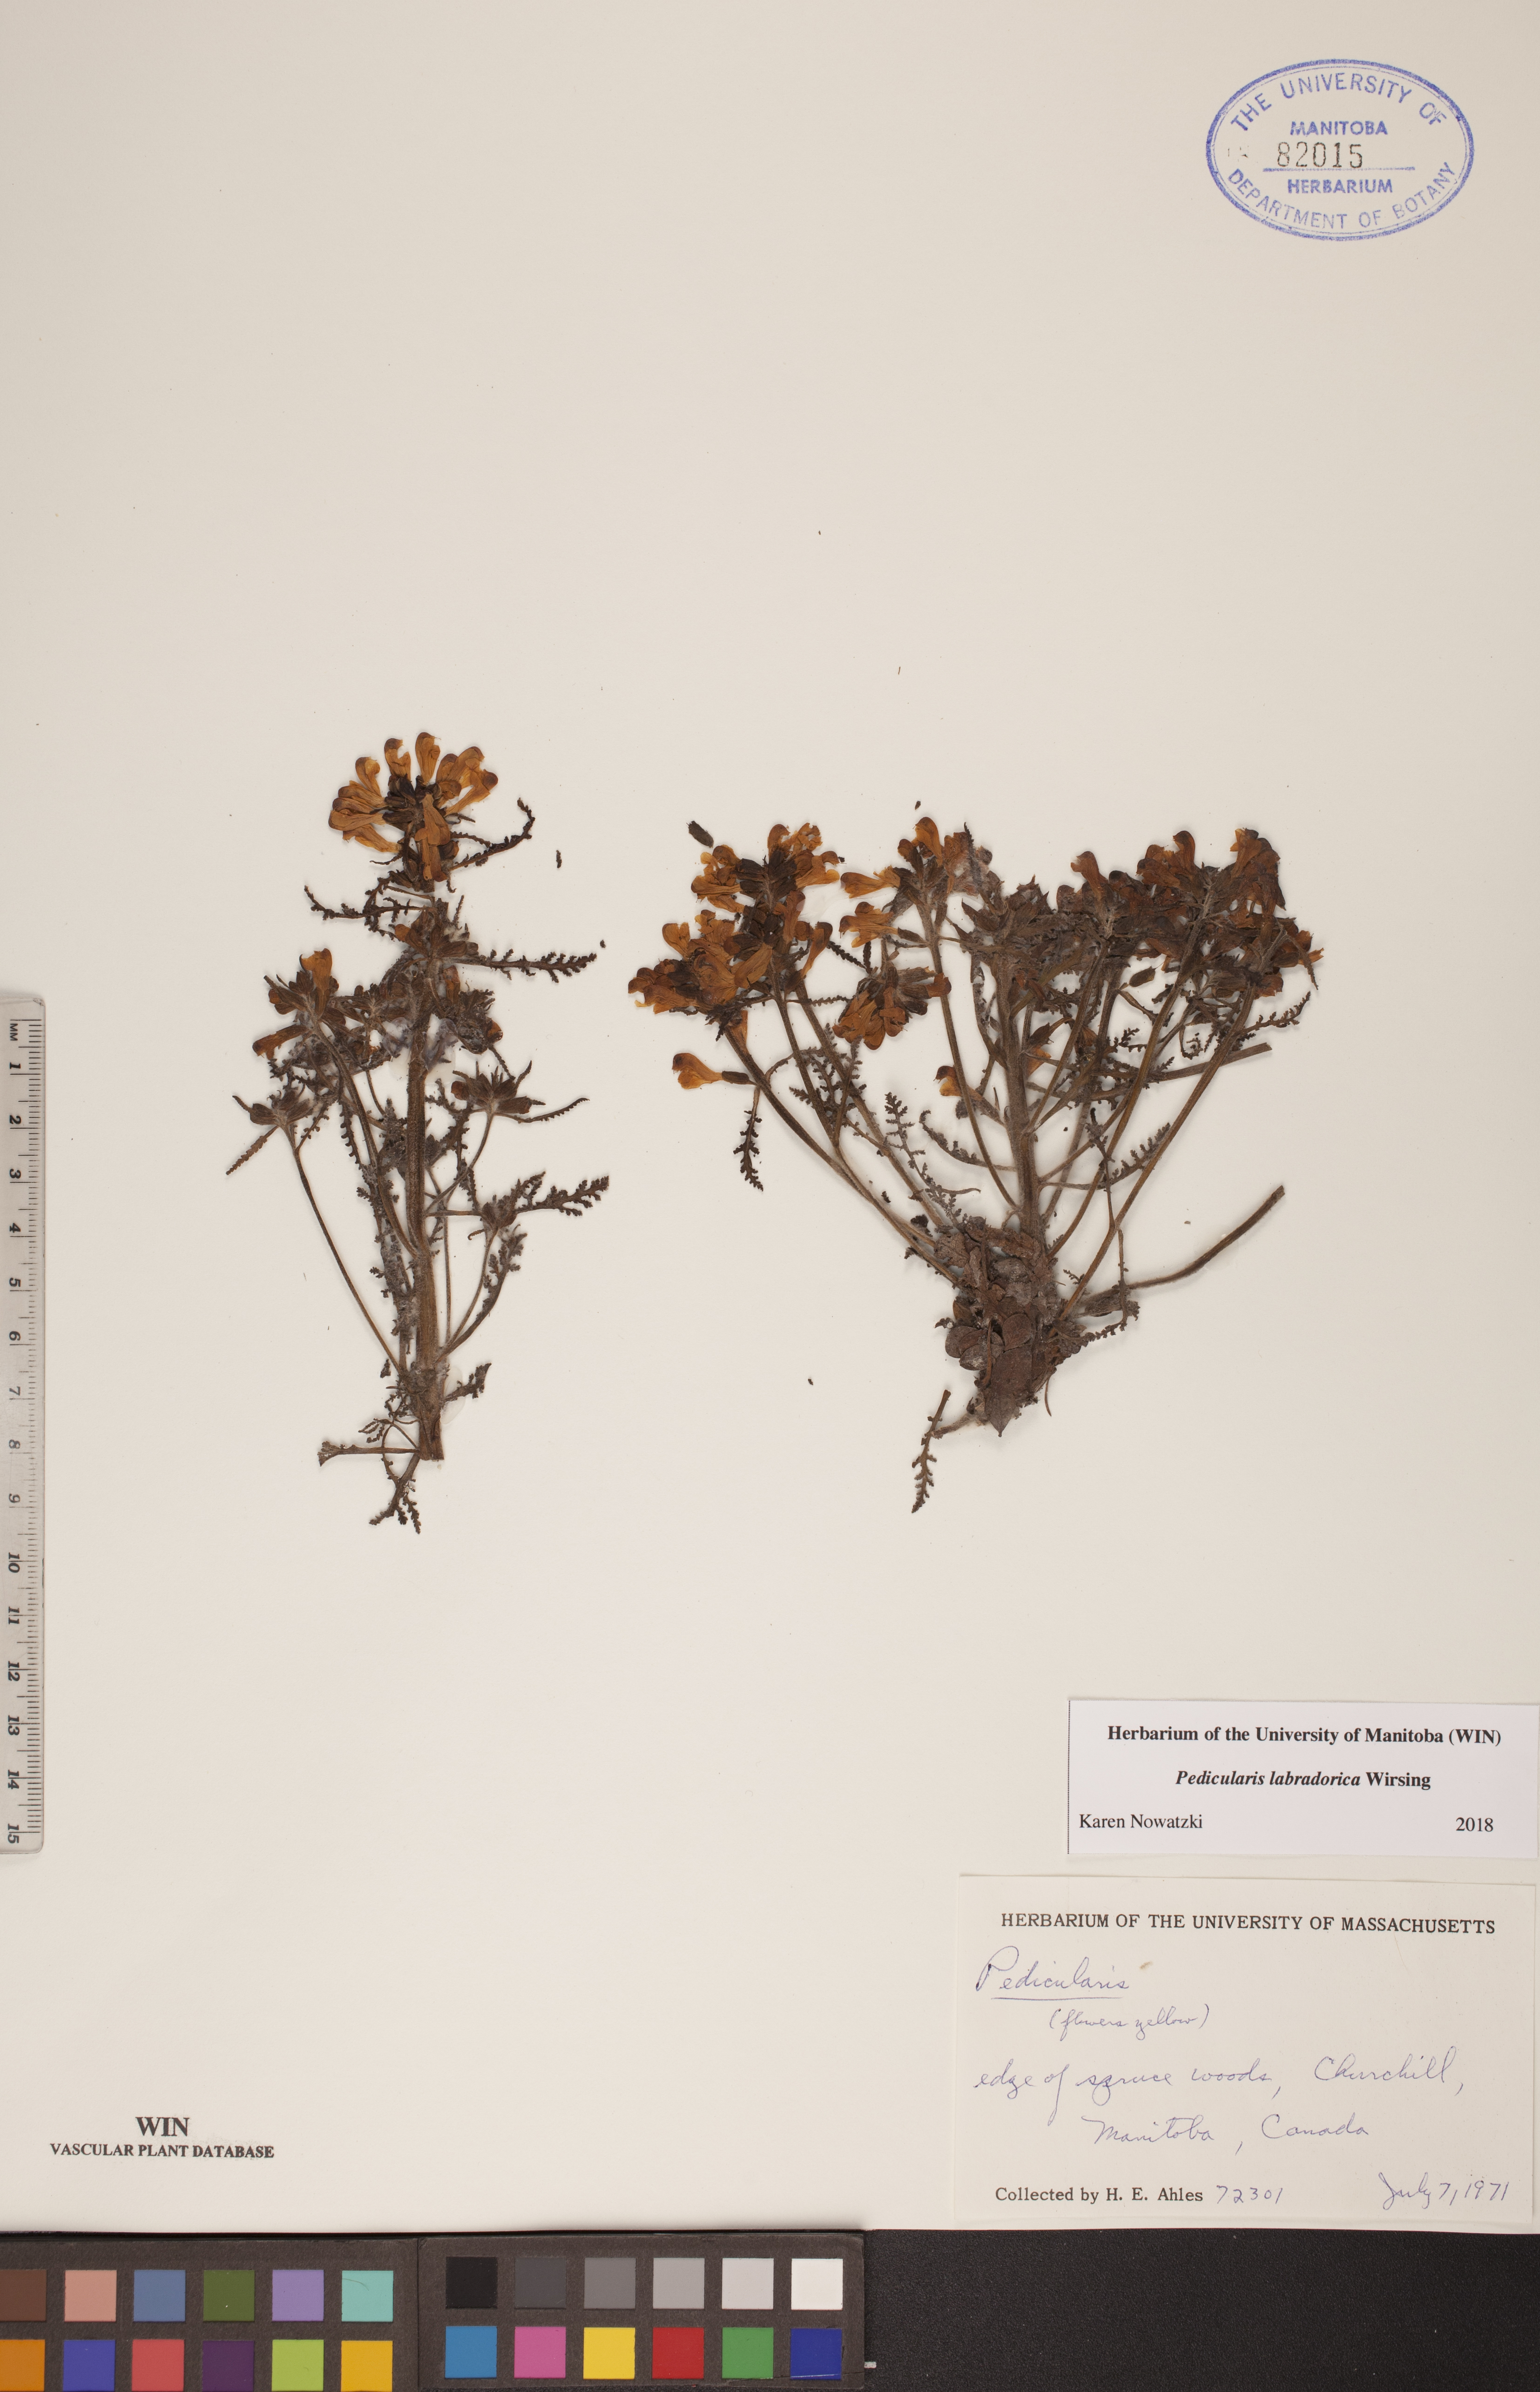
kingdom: Plantae
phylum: Tracheophyta
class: Magnoliopsida
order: Lamiales
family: Orobanchaceae
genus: Pedicularis
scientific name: Pedicularis labradorica
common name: Labrador lousewort
